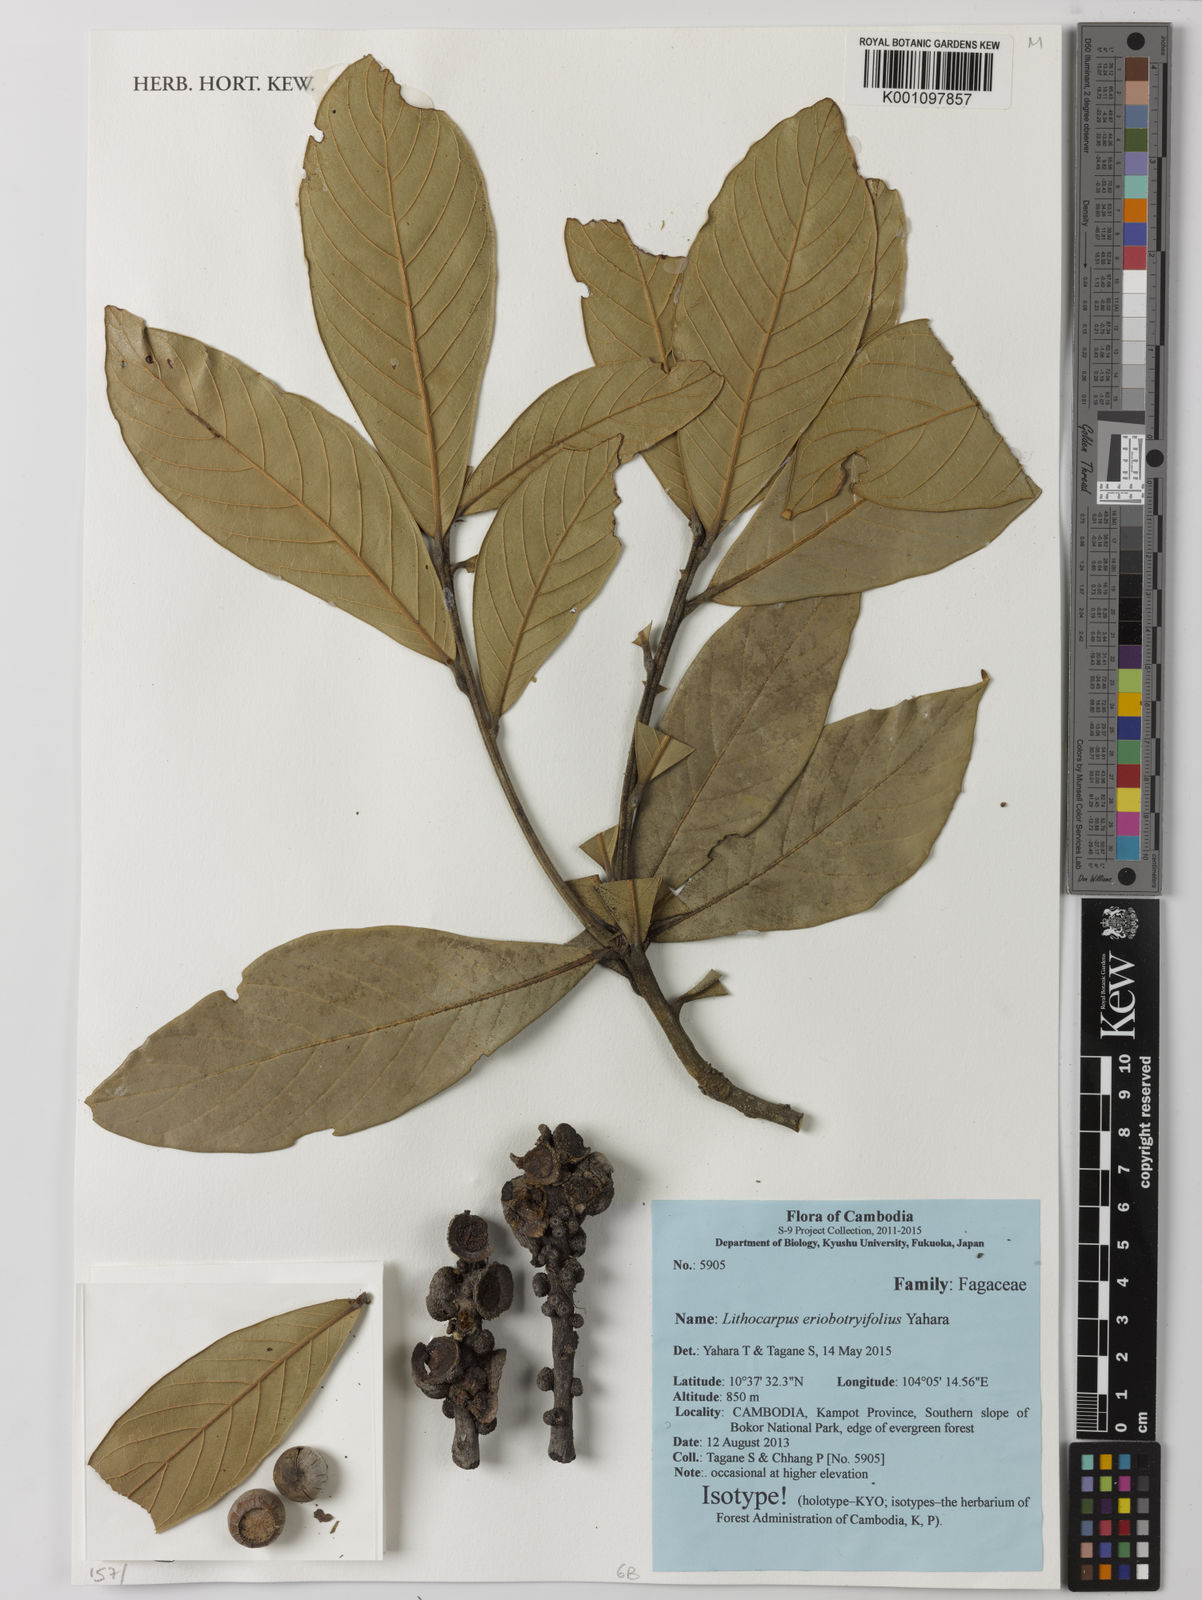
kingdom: Plantae
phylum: Tracheophyta
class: Magnoliopsida
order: Fagales
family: Fagaceae
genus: Lithocarpus
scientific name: Lithocarpus eriobotryifolius
